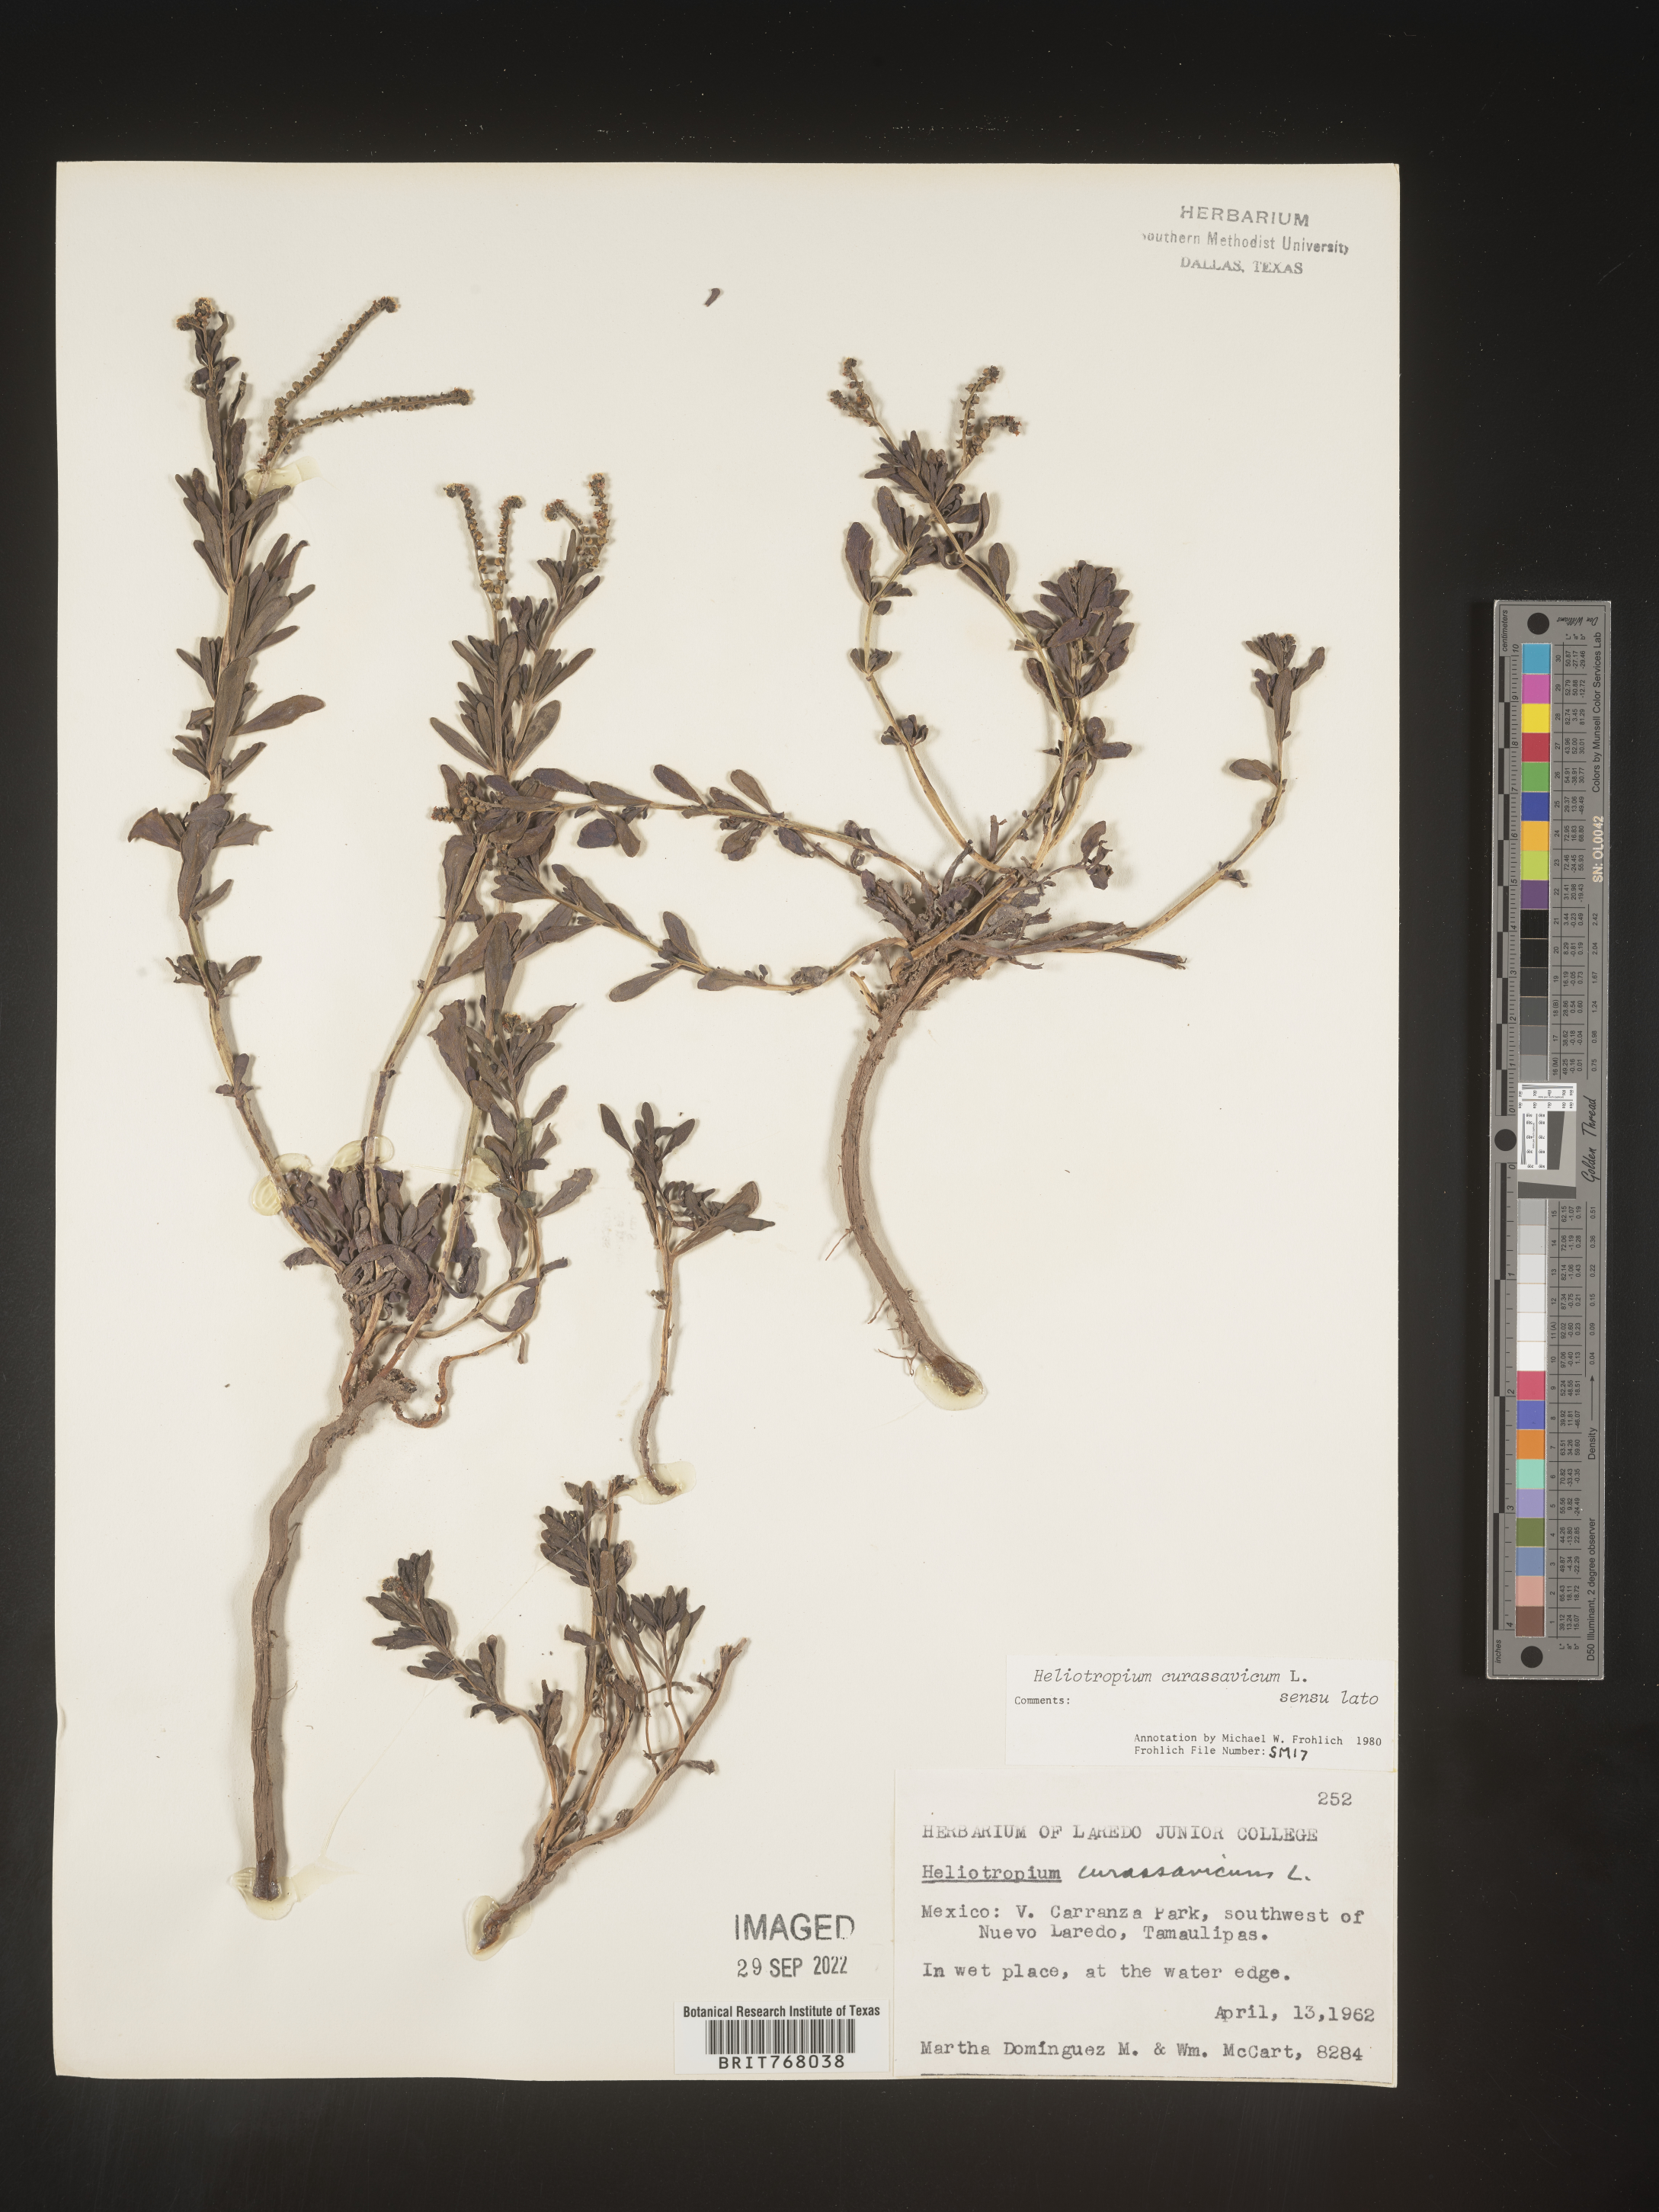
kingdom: Plantae
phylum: Tracheophyta
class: Magnoliopsida
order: Boraginales
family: Heliotropiaceae
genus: Heliotropium
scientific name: Heliotropium curassavicum
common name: Seaside heliotrope
